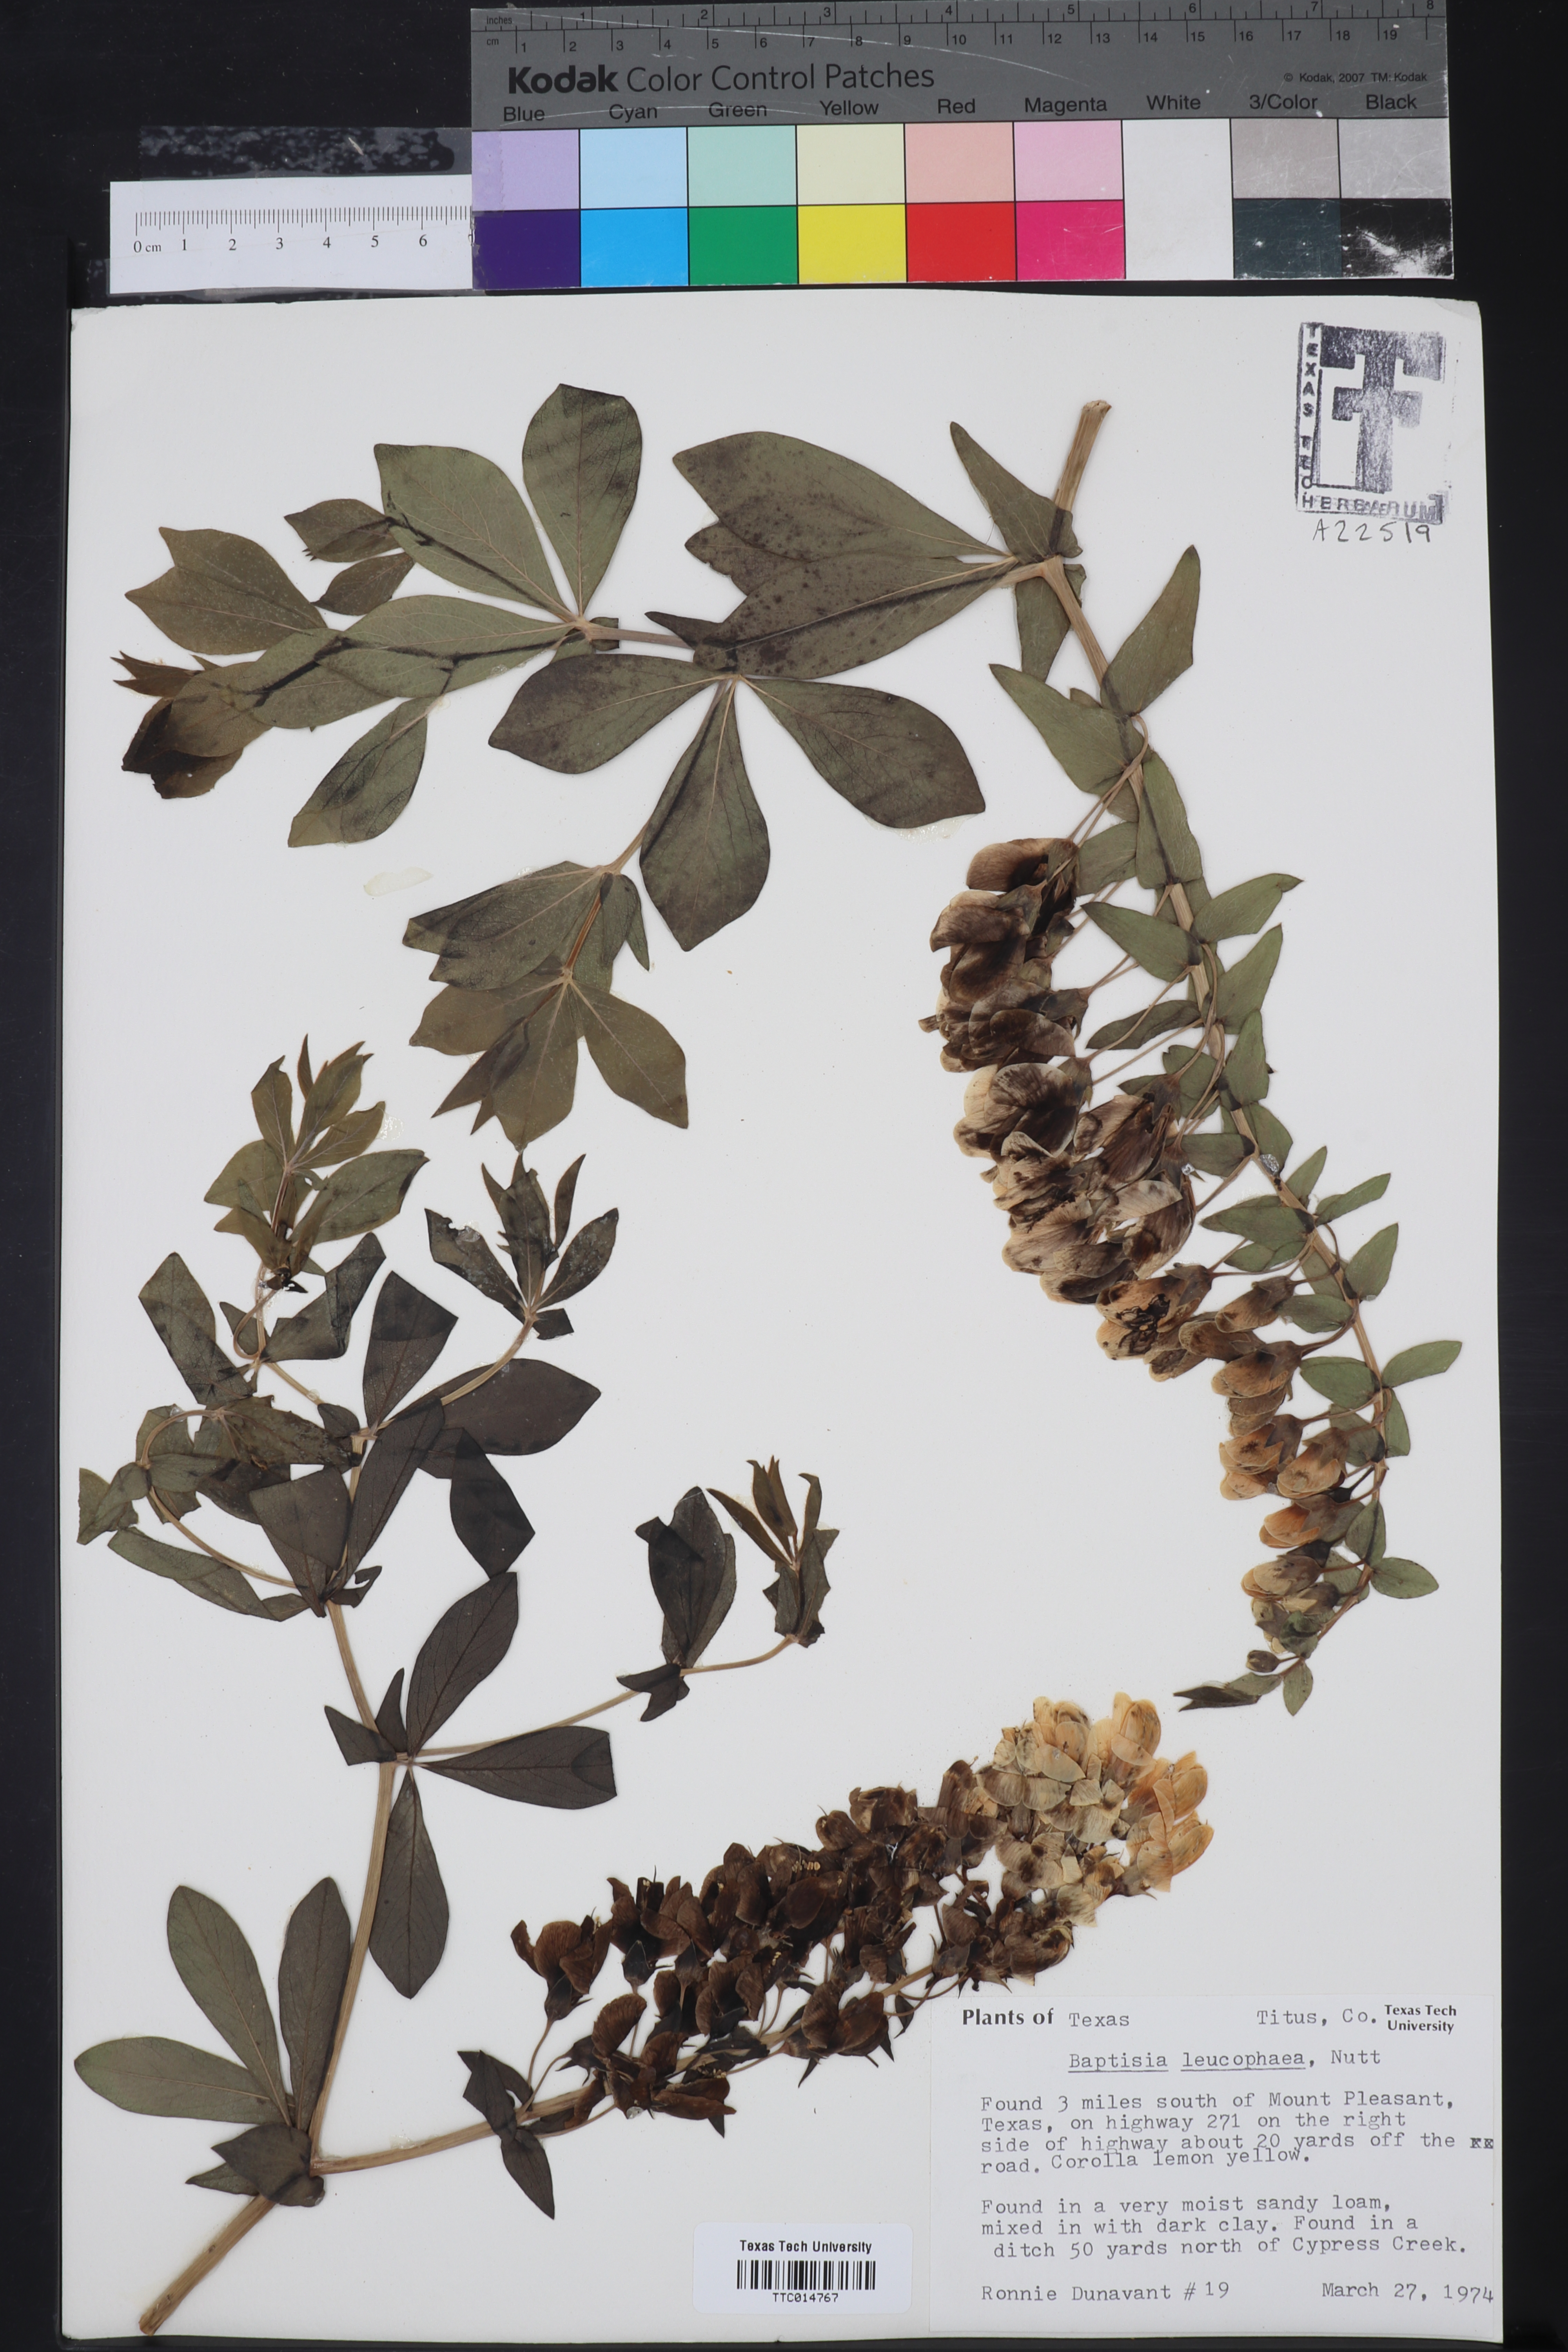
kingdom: Plantae
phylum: Tracheophyta
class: Magnoliopsida
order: Fabales
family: Fabaceae
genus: Baptisia
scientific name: Baptisia bracteata
